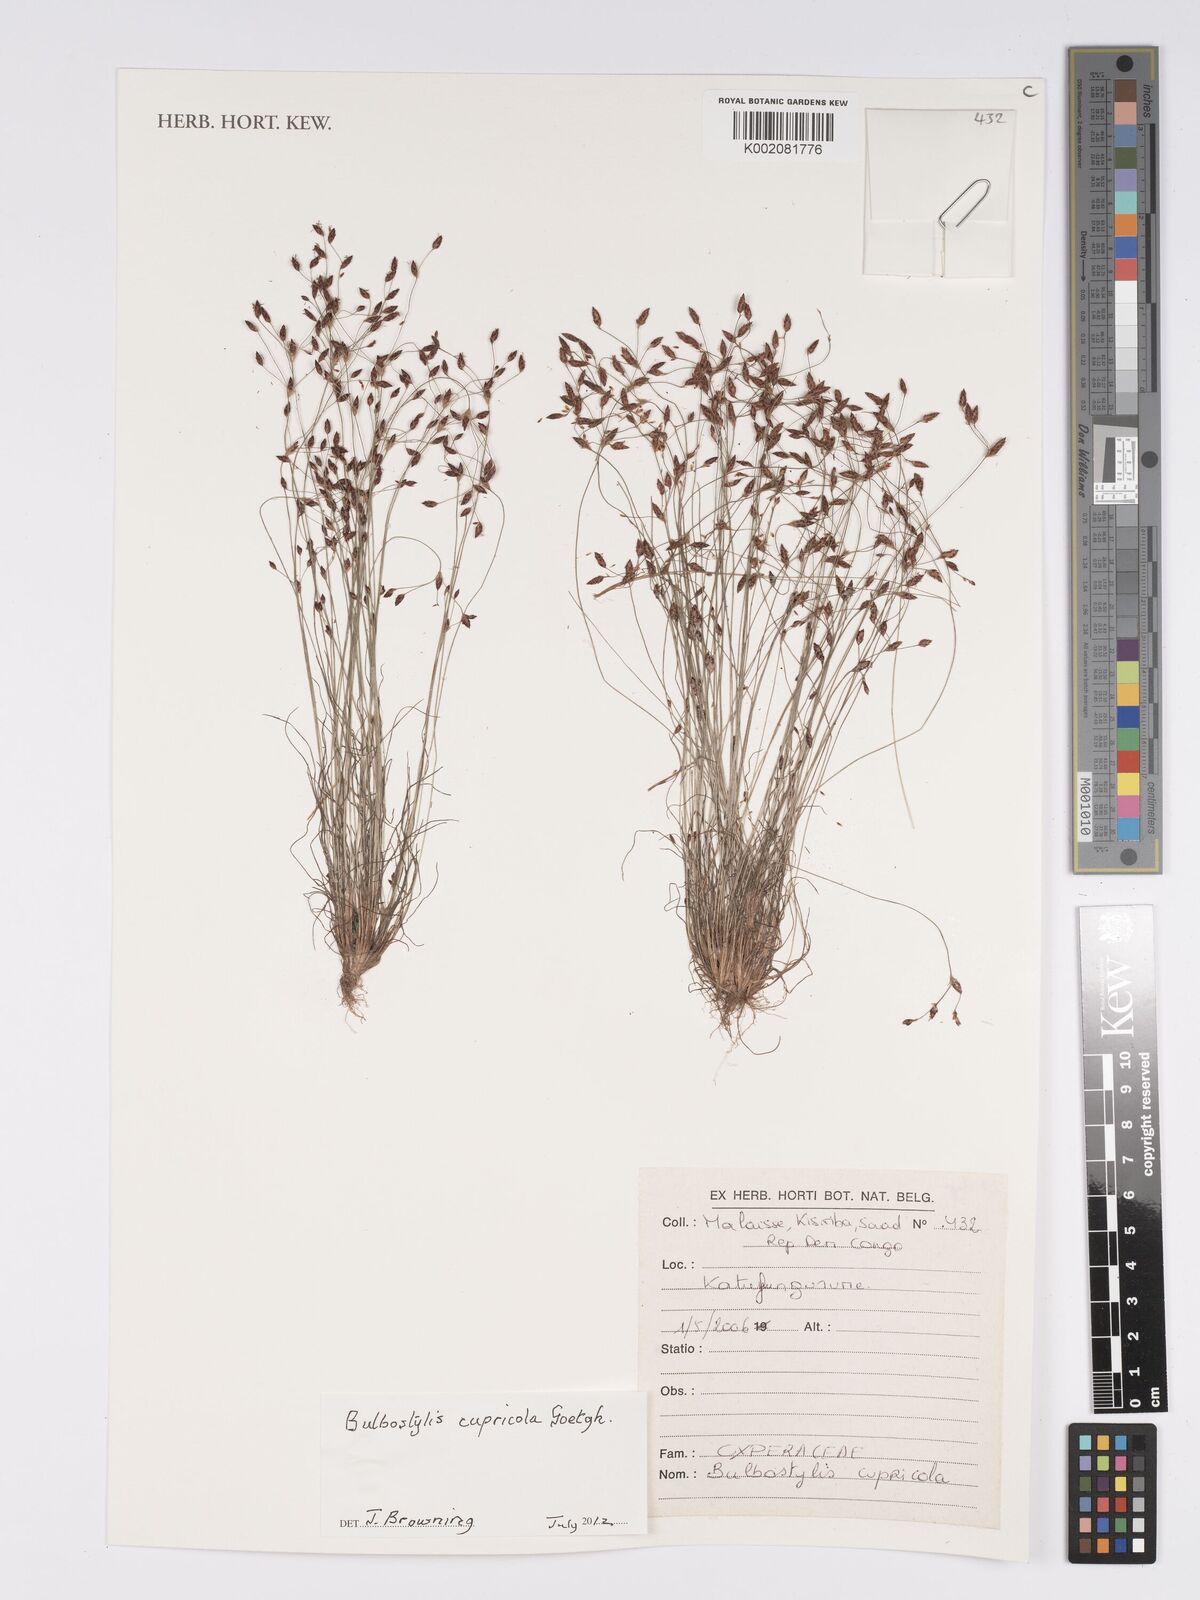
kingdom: Plantae
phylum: Tracheophyta
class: Liliopsida
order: Poales
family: Cyperaceae
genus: Bulbostylis
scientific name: Bulbostylis cupricola
